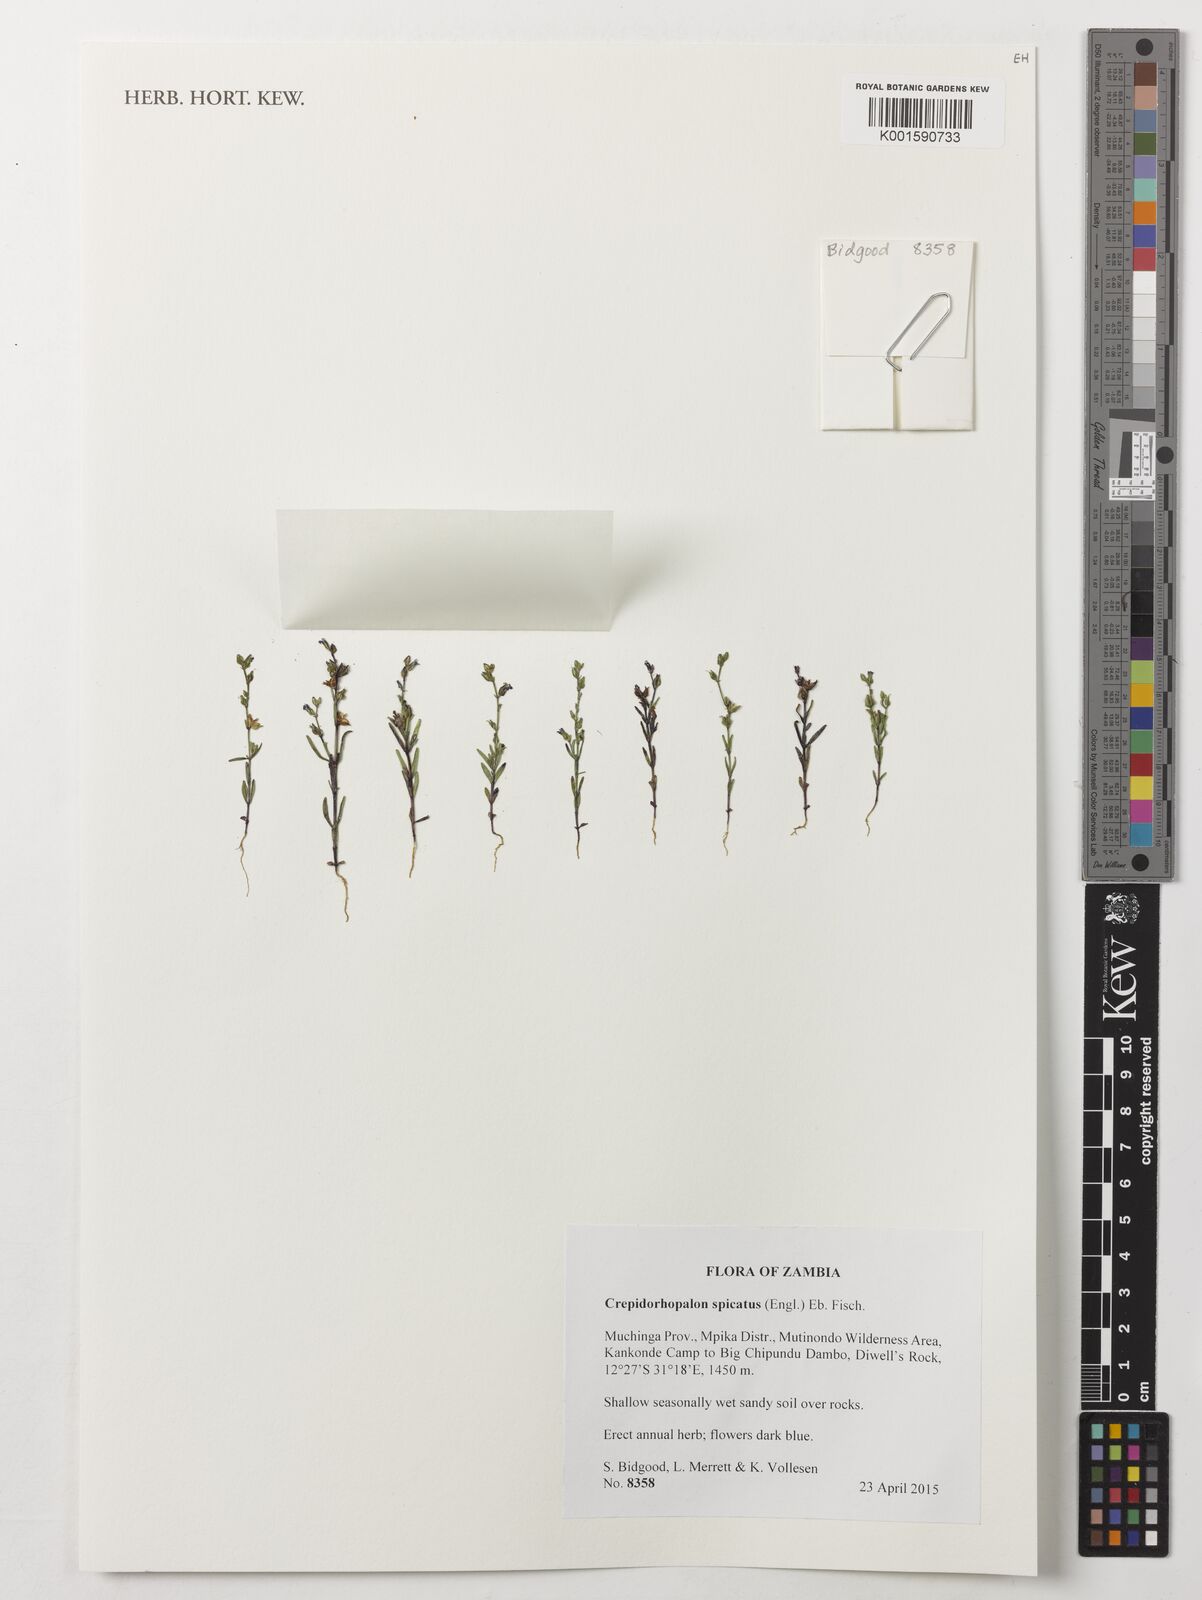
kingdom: Plantae
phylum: Tracheophyta
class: Magnoliopsida
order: Lamiales
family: Linderniaceae
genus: Crepidorhopalon
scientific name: Crepidorhopalon spicatus
